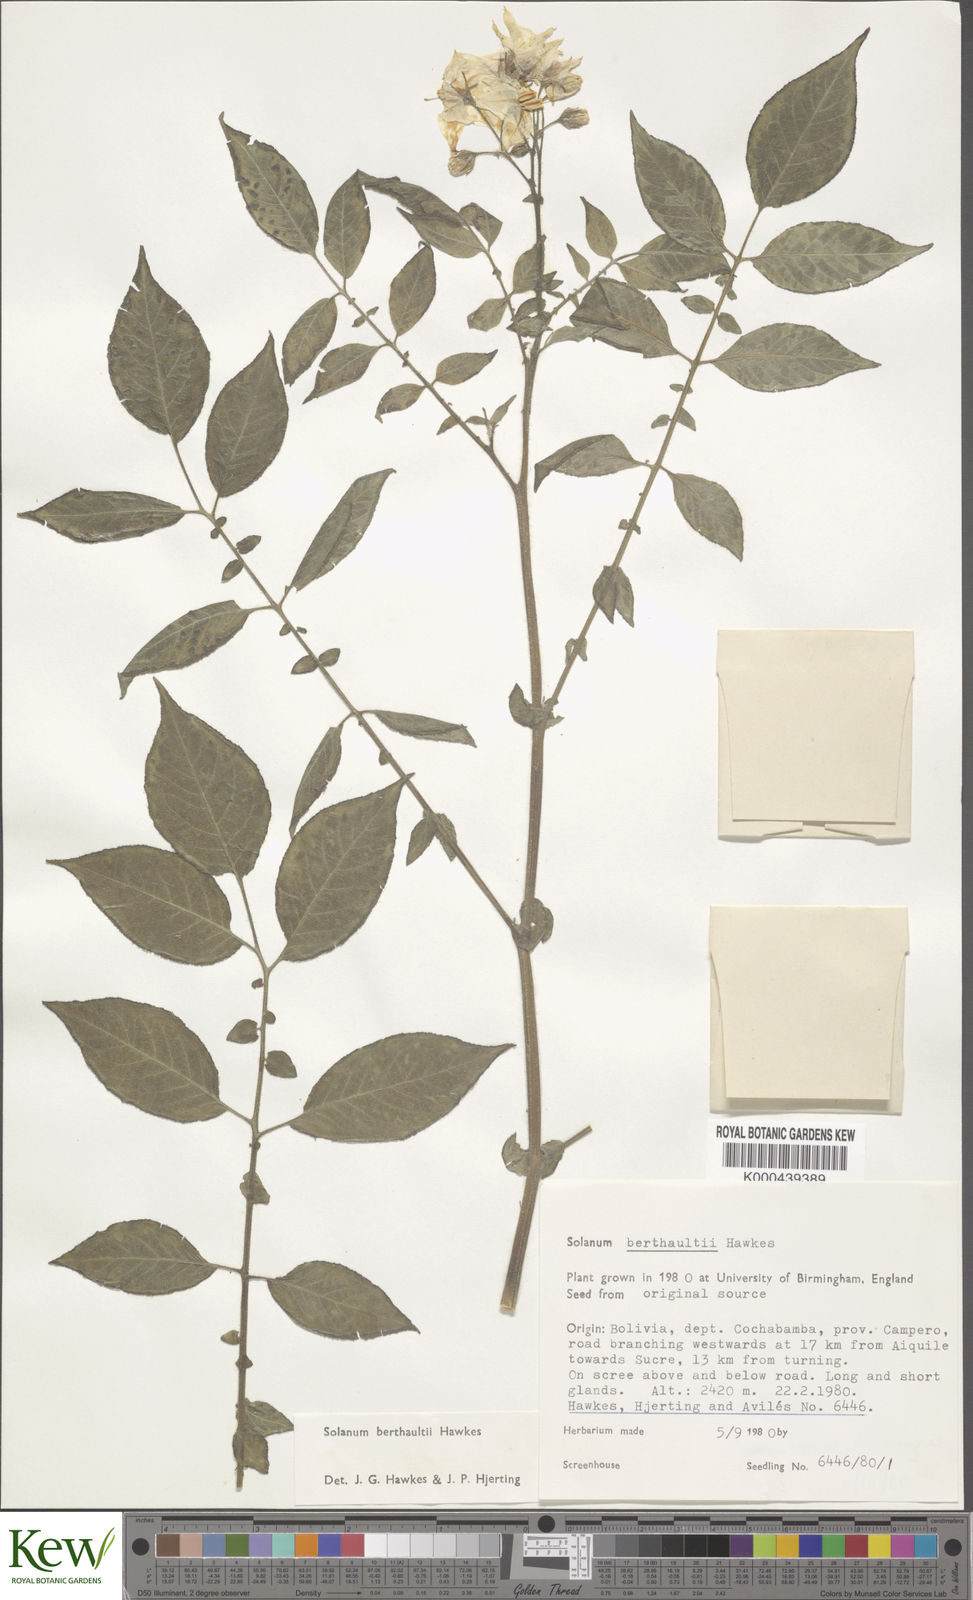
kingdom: Plantae
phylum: Tracheophyta
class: Magnoliopsida
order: Solanales
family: Solanaceae
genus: Solanum
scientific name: Solanum berthaultii
